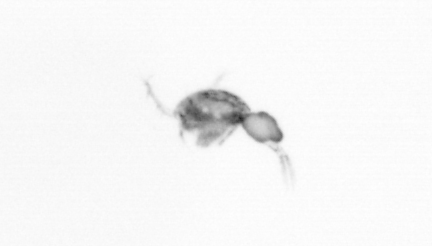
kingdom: Animalia
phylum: Arthropoda
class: Copepoda
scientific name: Copepoda
